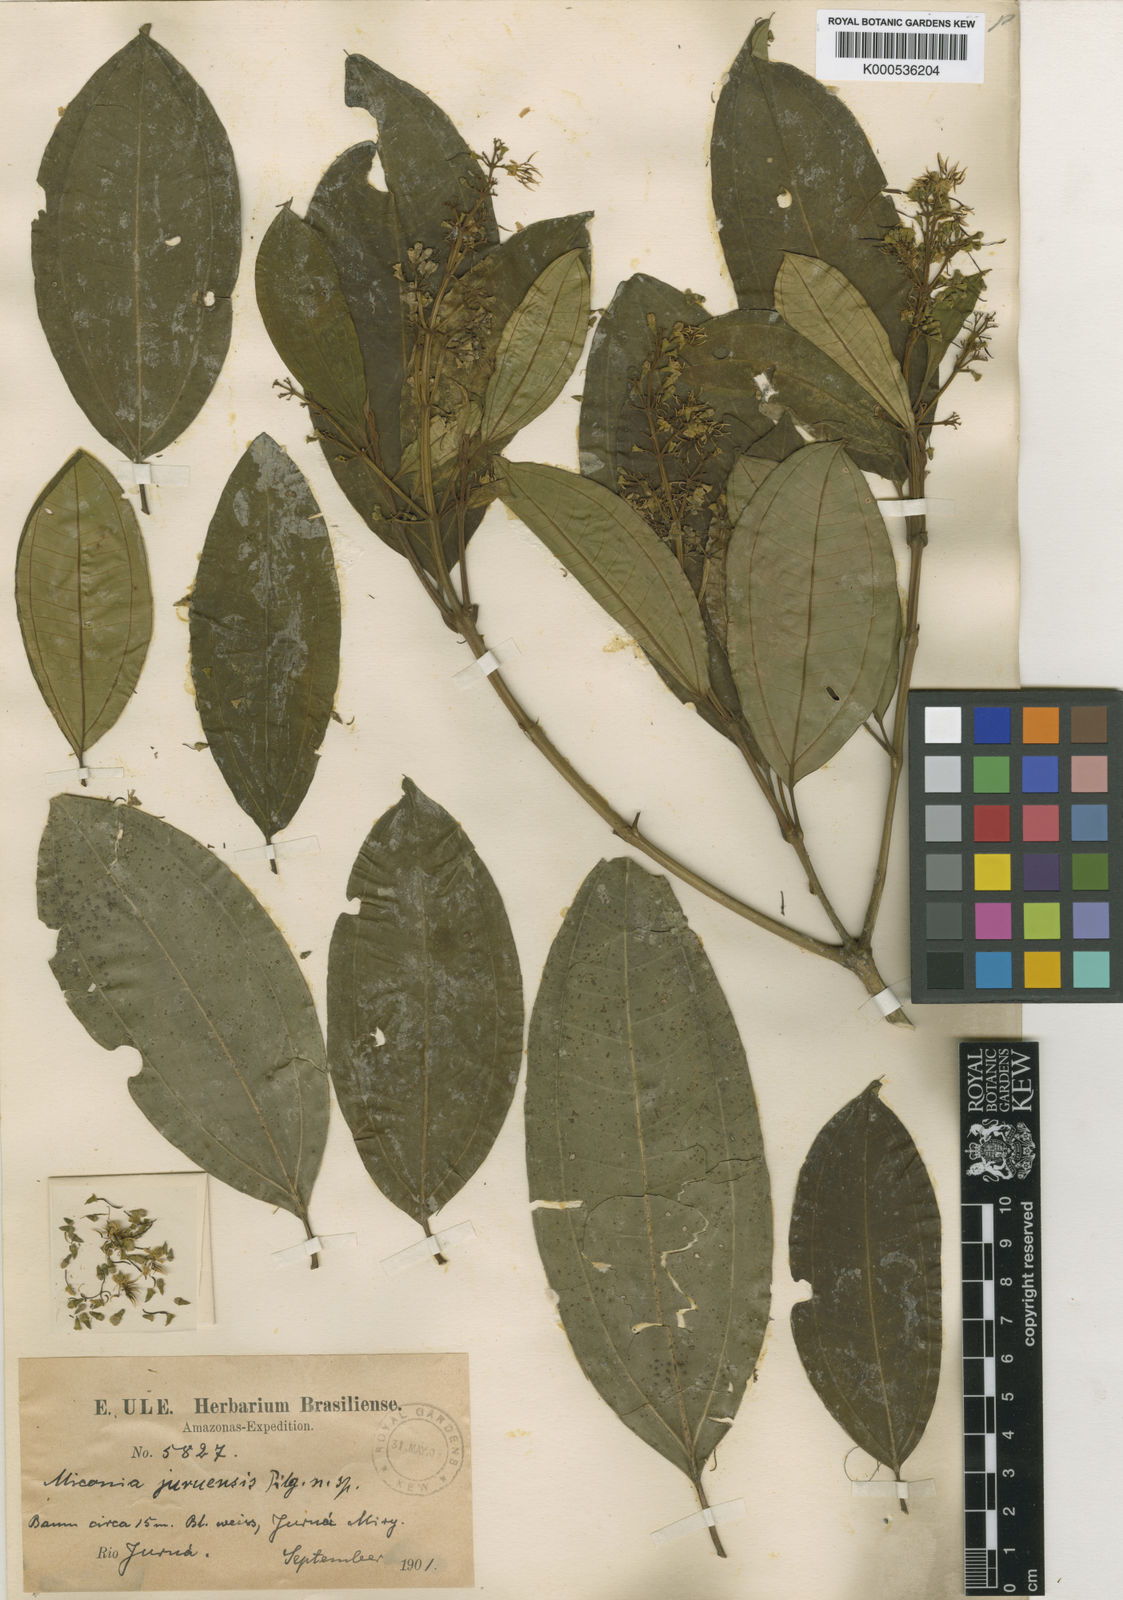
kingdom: Plantae
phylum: Tracheophyta
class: Magnoliopsida
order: Myrtales
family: Melastomataceae
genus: Miconia
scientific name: Miconia juruensis
